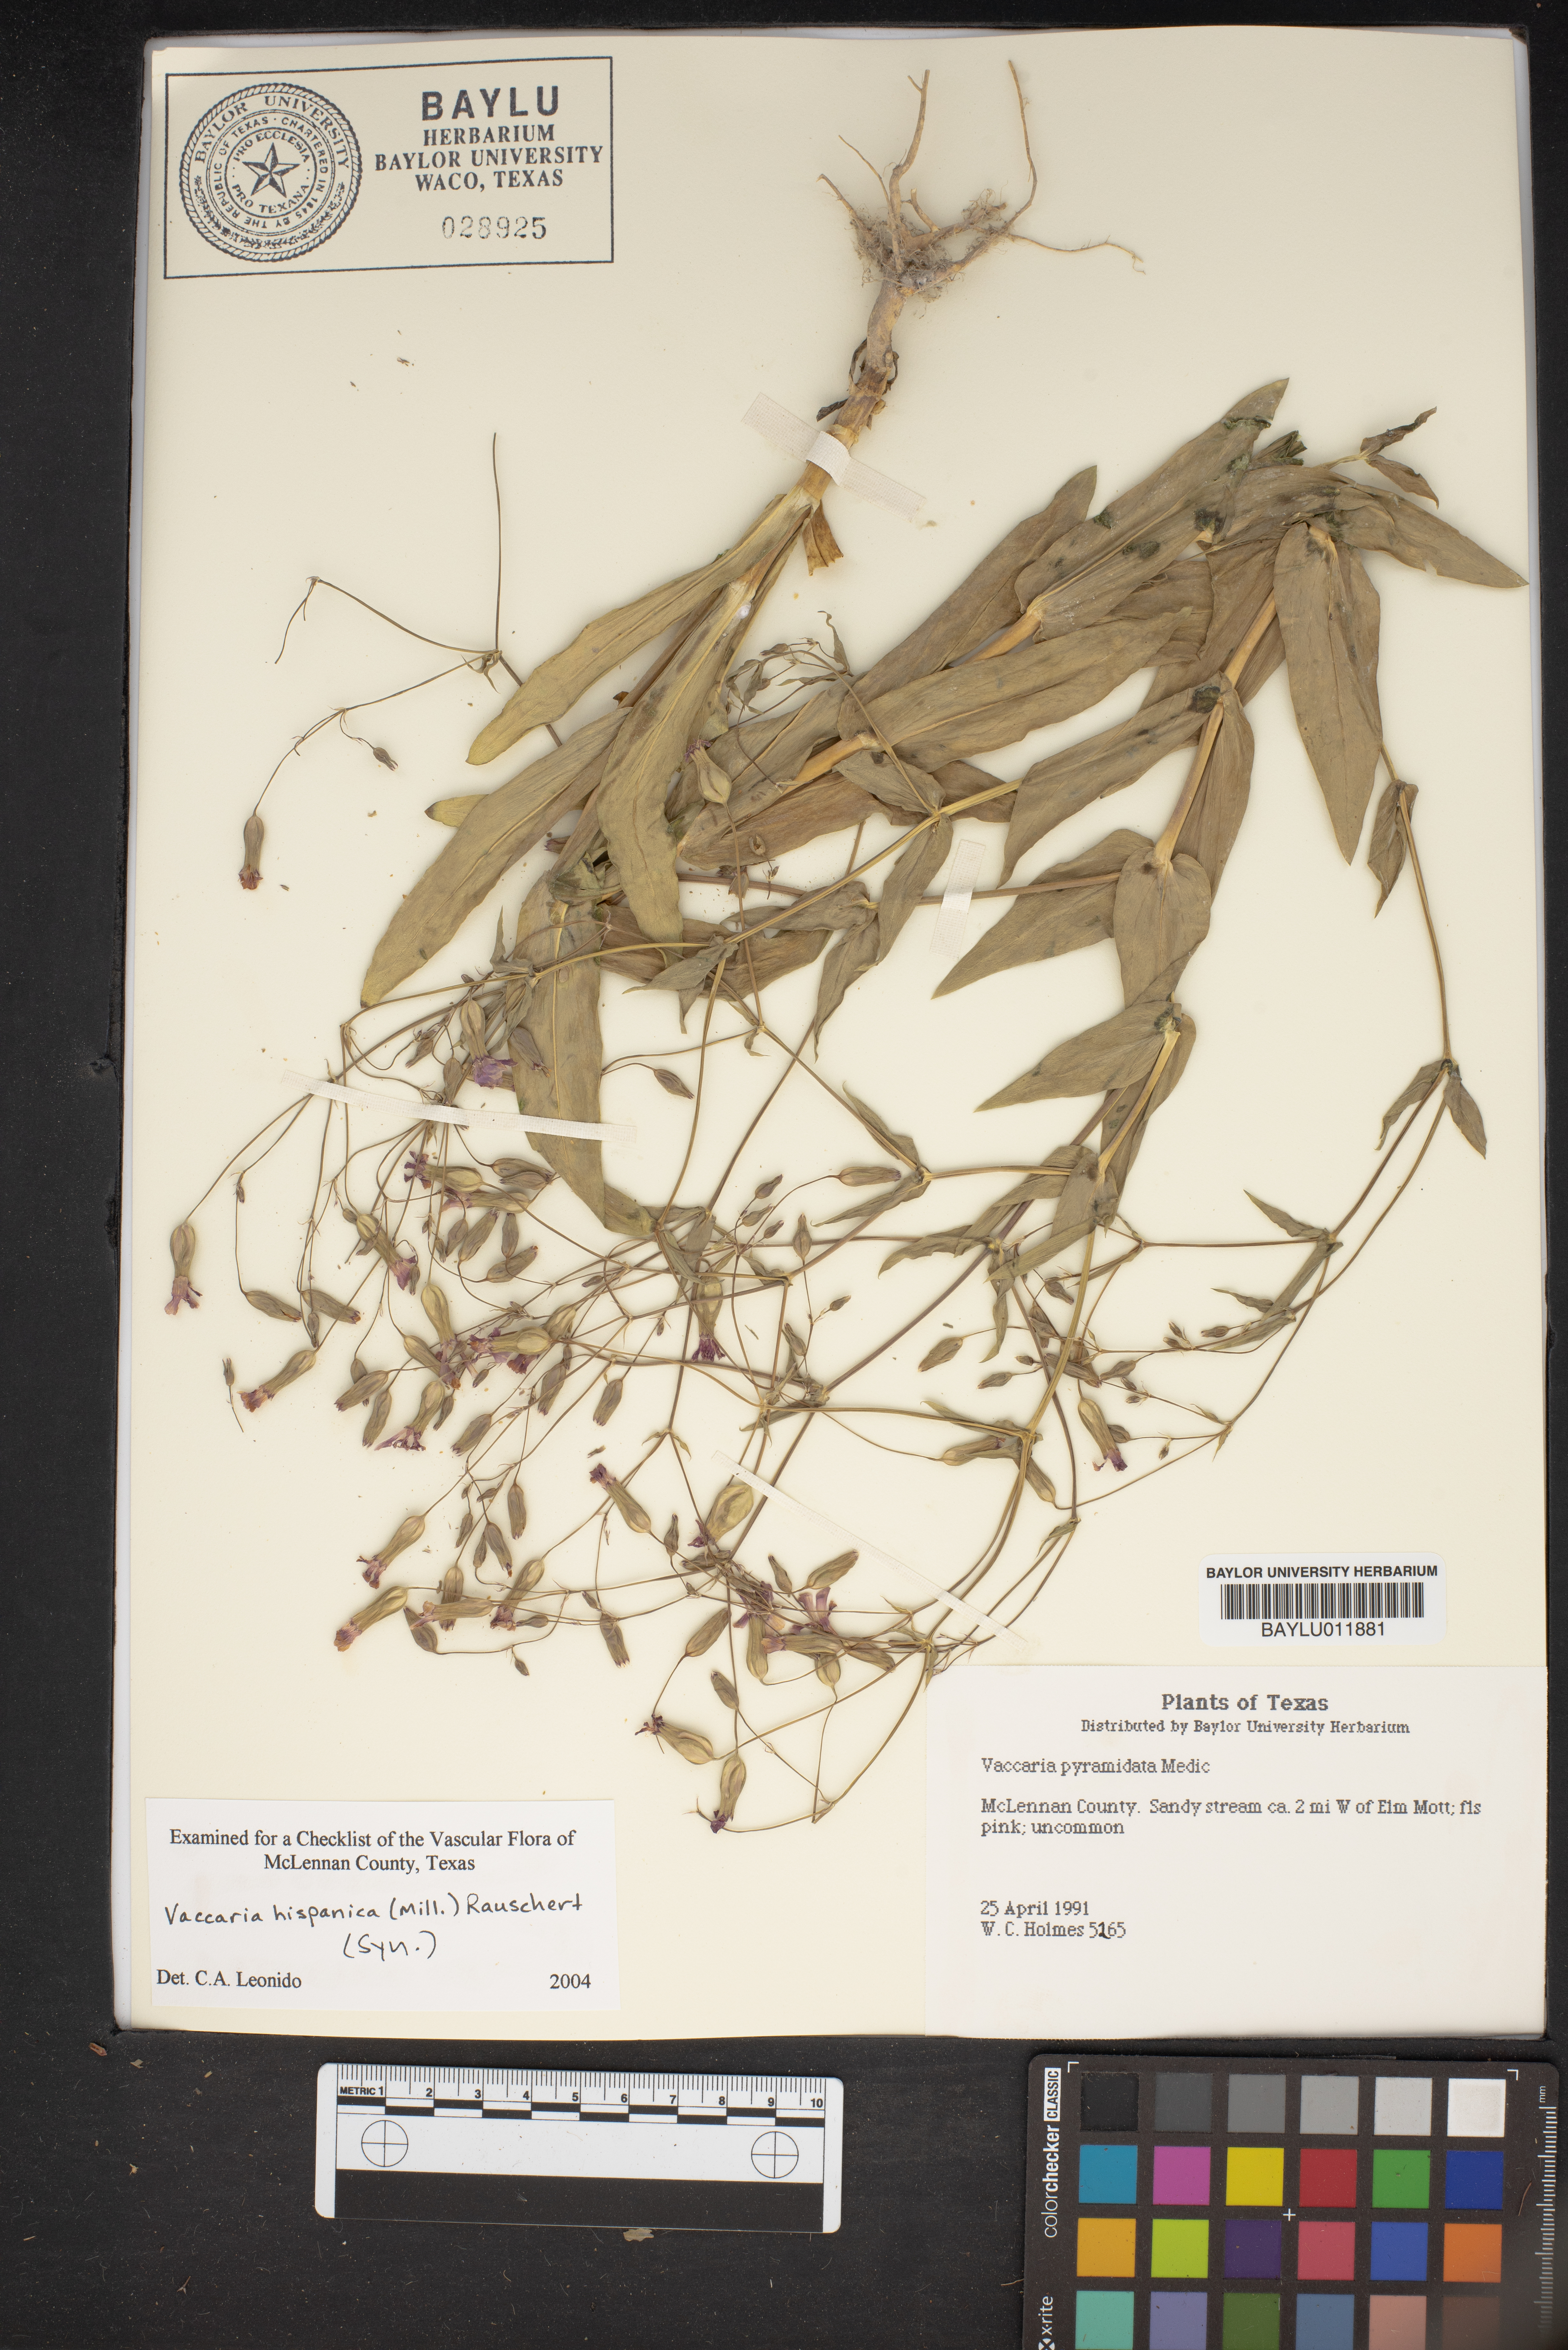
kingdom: Plantae
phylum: Tracheophyta
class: Magnoliopsida
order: Caryophyllales
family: Caryophyllaceae
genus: Gypsophila
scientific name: Gypsophila vaccaria
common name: Cow soapwort
